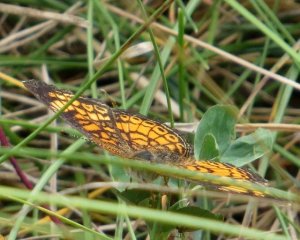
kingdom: Animalia
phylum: Arthropoda
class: Insecta
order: Lepidoptera
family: Nymphalidae
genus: Phyciodes
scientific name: Phyciodes tharos
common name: Pearl Crescent
